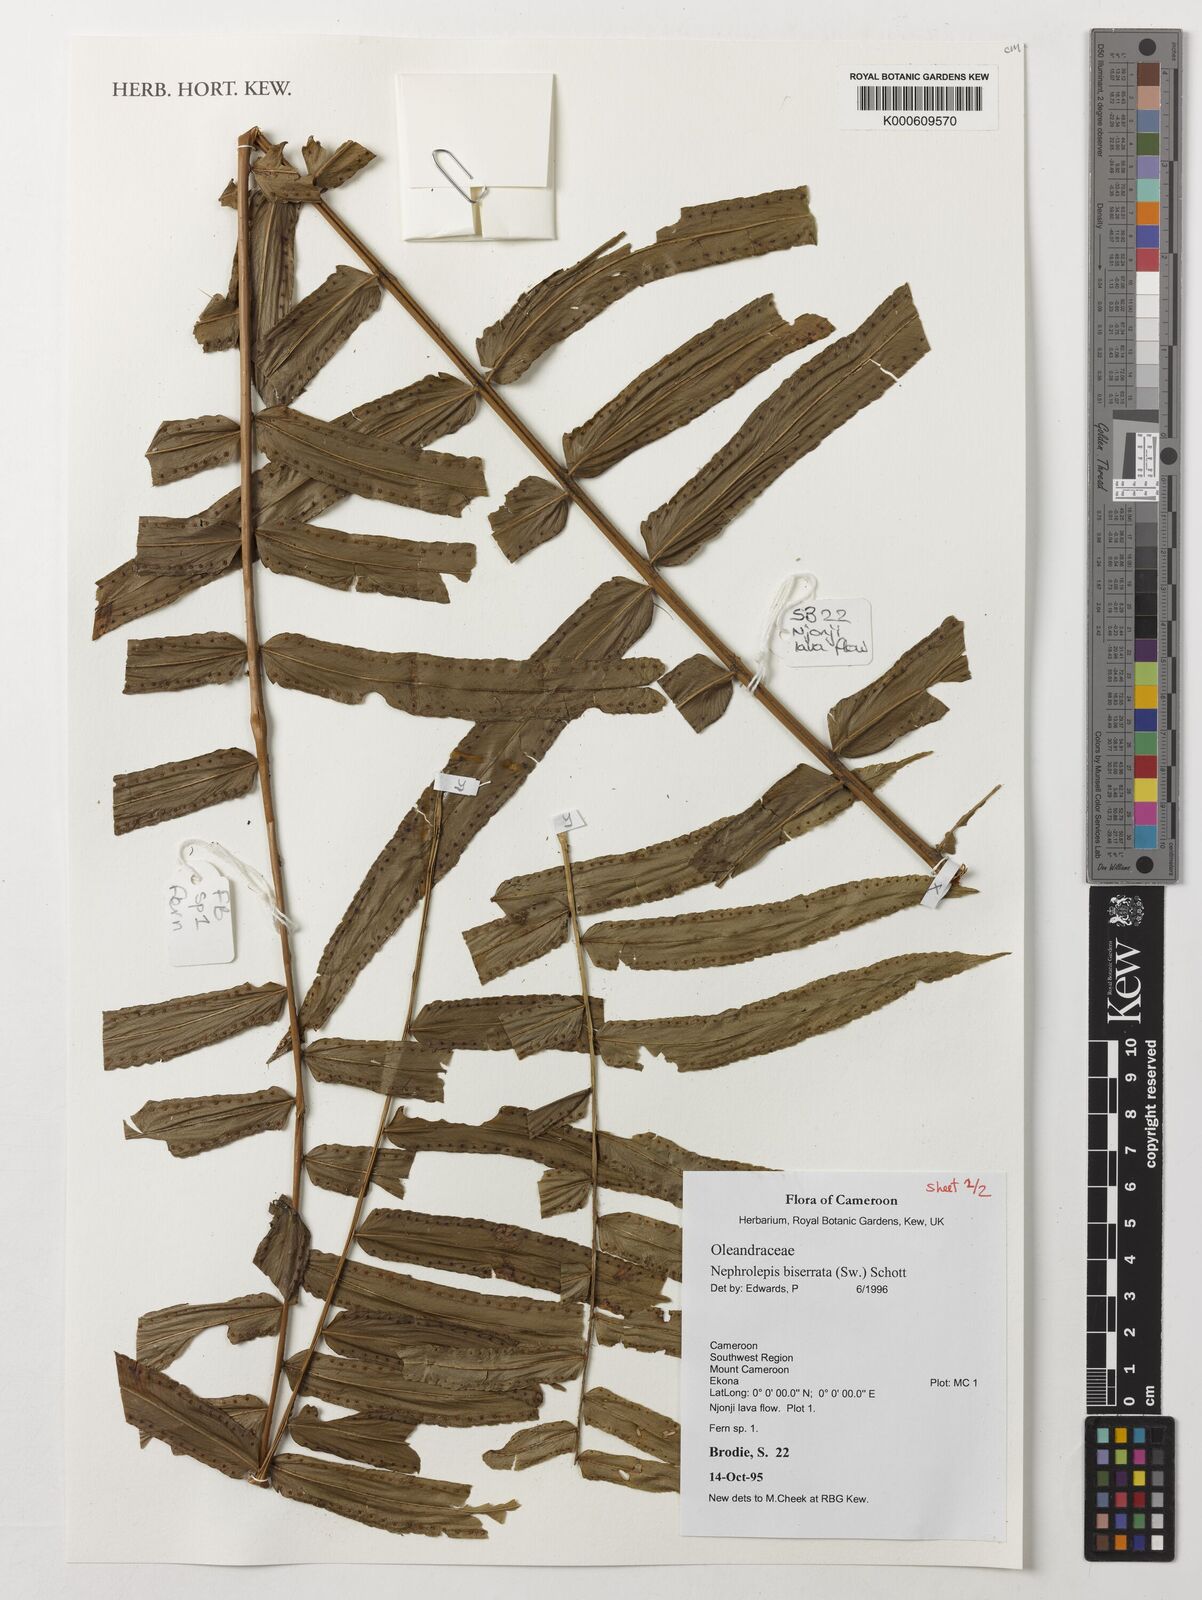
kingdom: Plantae
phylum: Tracheophyta
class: Polypodiopsida
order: Polypodiales
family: Nephrolepidaceae
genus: Nephrolepis
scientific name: Nephrolepis biserrata
